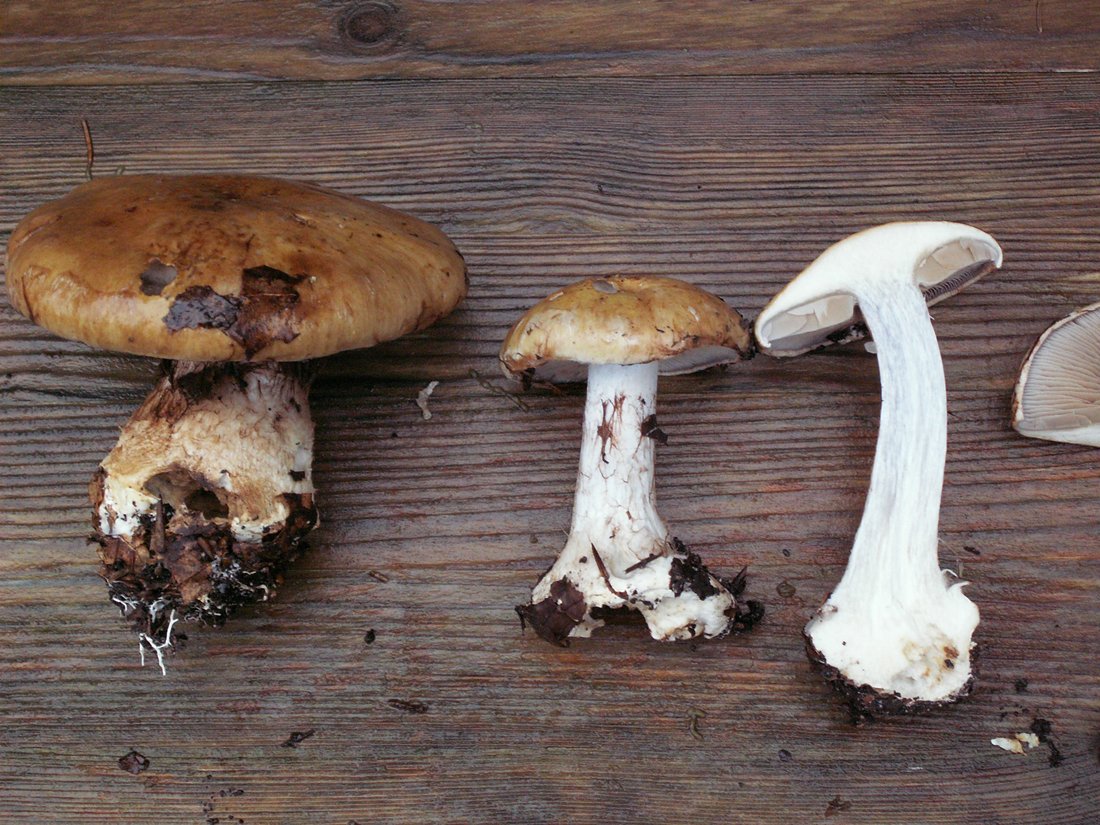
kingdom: Fungi
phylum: Basidiomycota
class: Agaricomycetes
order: Agaricales
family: Cortinariaceae
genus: Cortinarius
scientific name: Cortinarius anserinus
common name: bøge-slørhat
